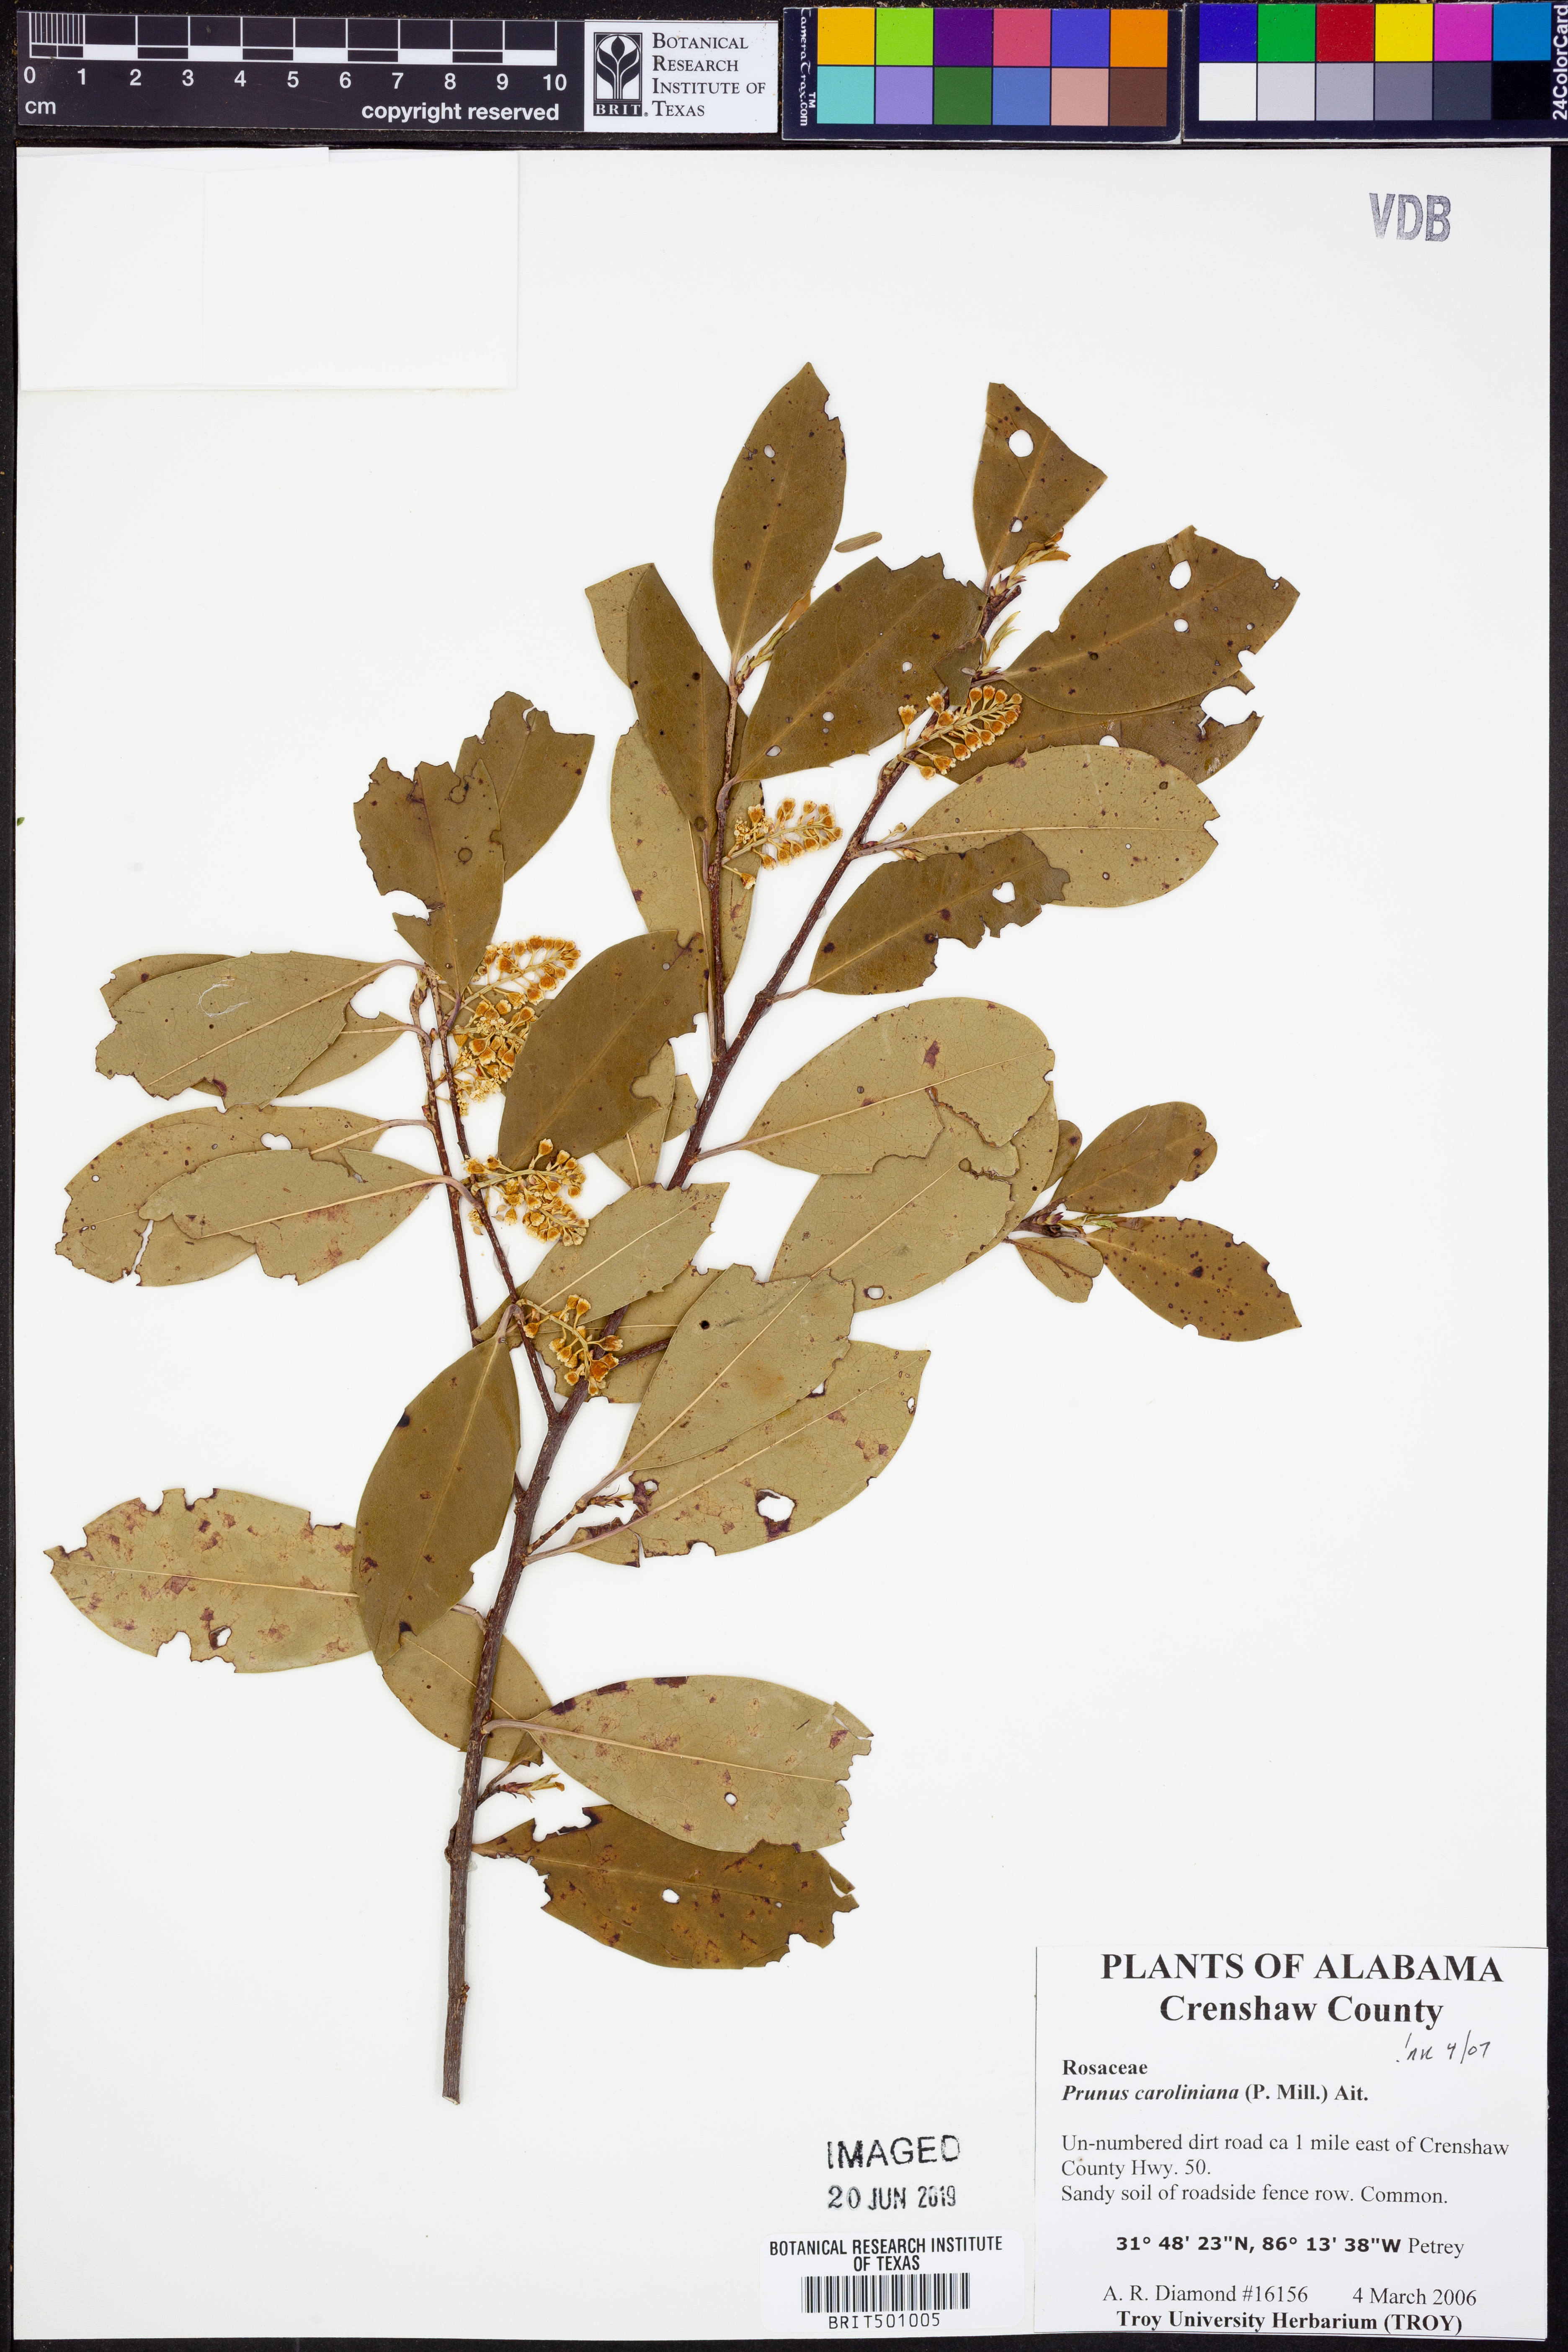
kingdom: Plantae
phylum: Tracheophyta
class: Magnoliopsida
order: Rosales
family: Rosaceae
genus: Prunus
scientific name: Prunus caroliniana
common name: Carolina laurel cherry
